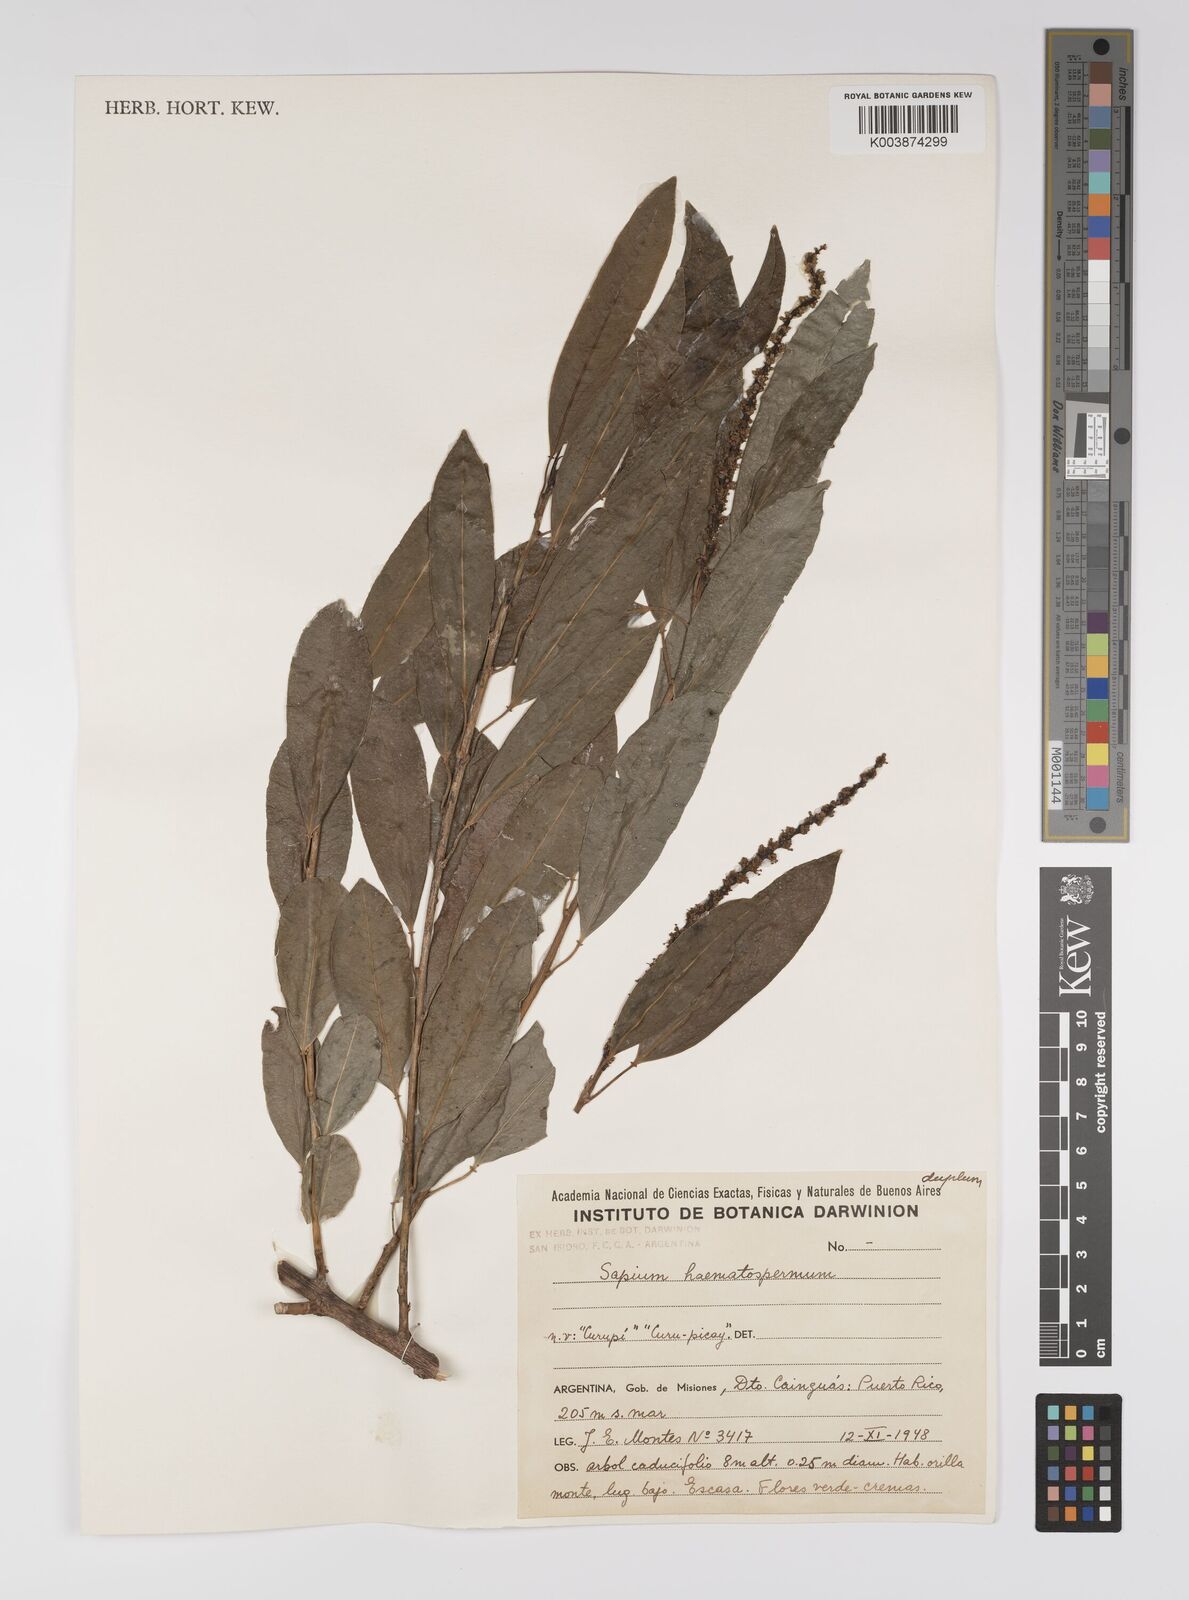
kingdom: Plantae
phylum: Tracheophyta
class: Magnoliopsida
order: Malpighiales
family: Euphorbiaceae
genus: Sapium
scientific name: Sapium haematospermum
